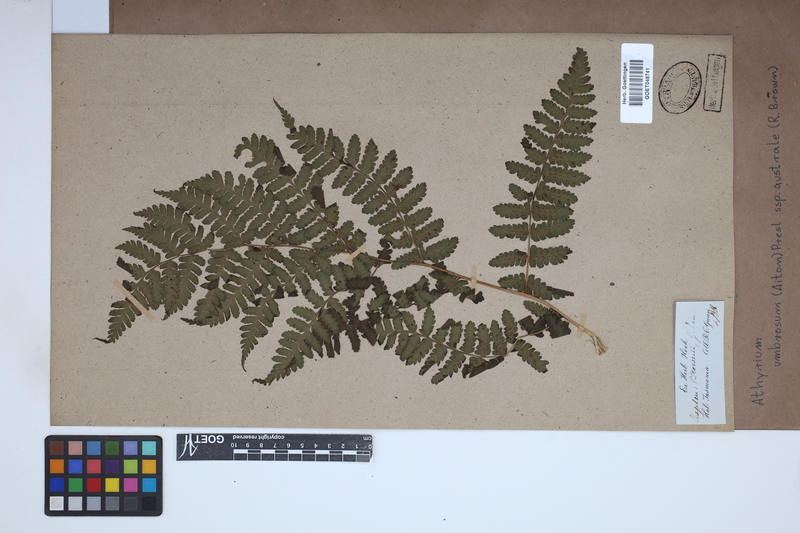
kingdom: Plantae
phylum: Tracheophyta
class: Polypodiopsida
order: Polypodiales
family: Athyriaceae
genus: Diplazium
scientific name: Diplazium australe
